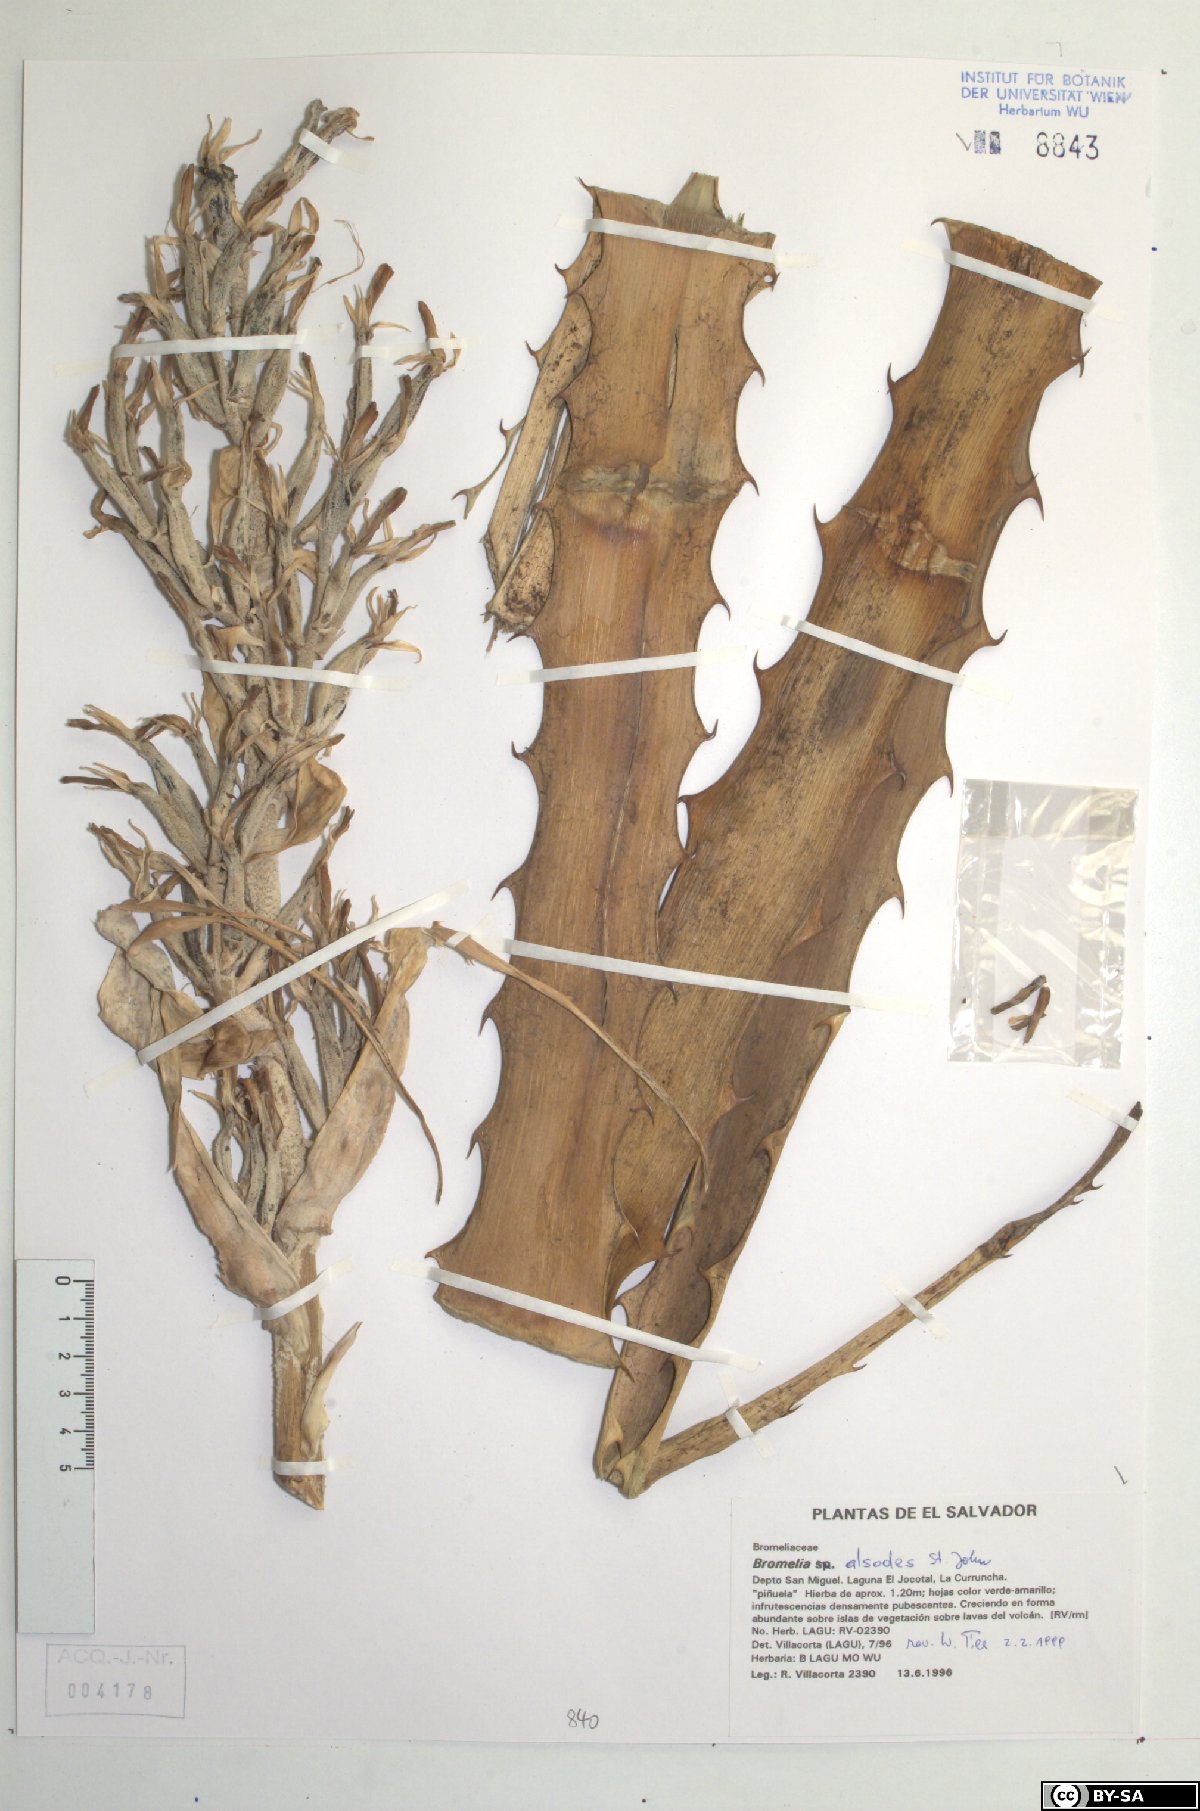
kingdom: Plantae
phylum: Tracheophyta
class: Liliopsida
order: Poales
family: Bromeliaceae
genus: Bromelia
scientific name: Bromelia alsodes
